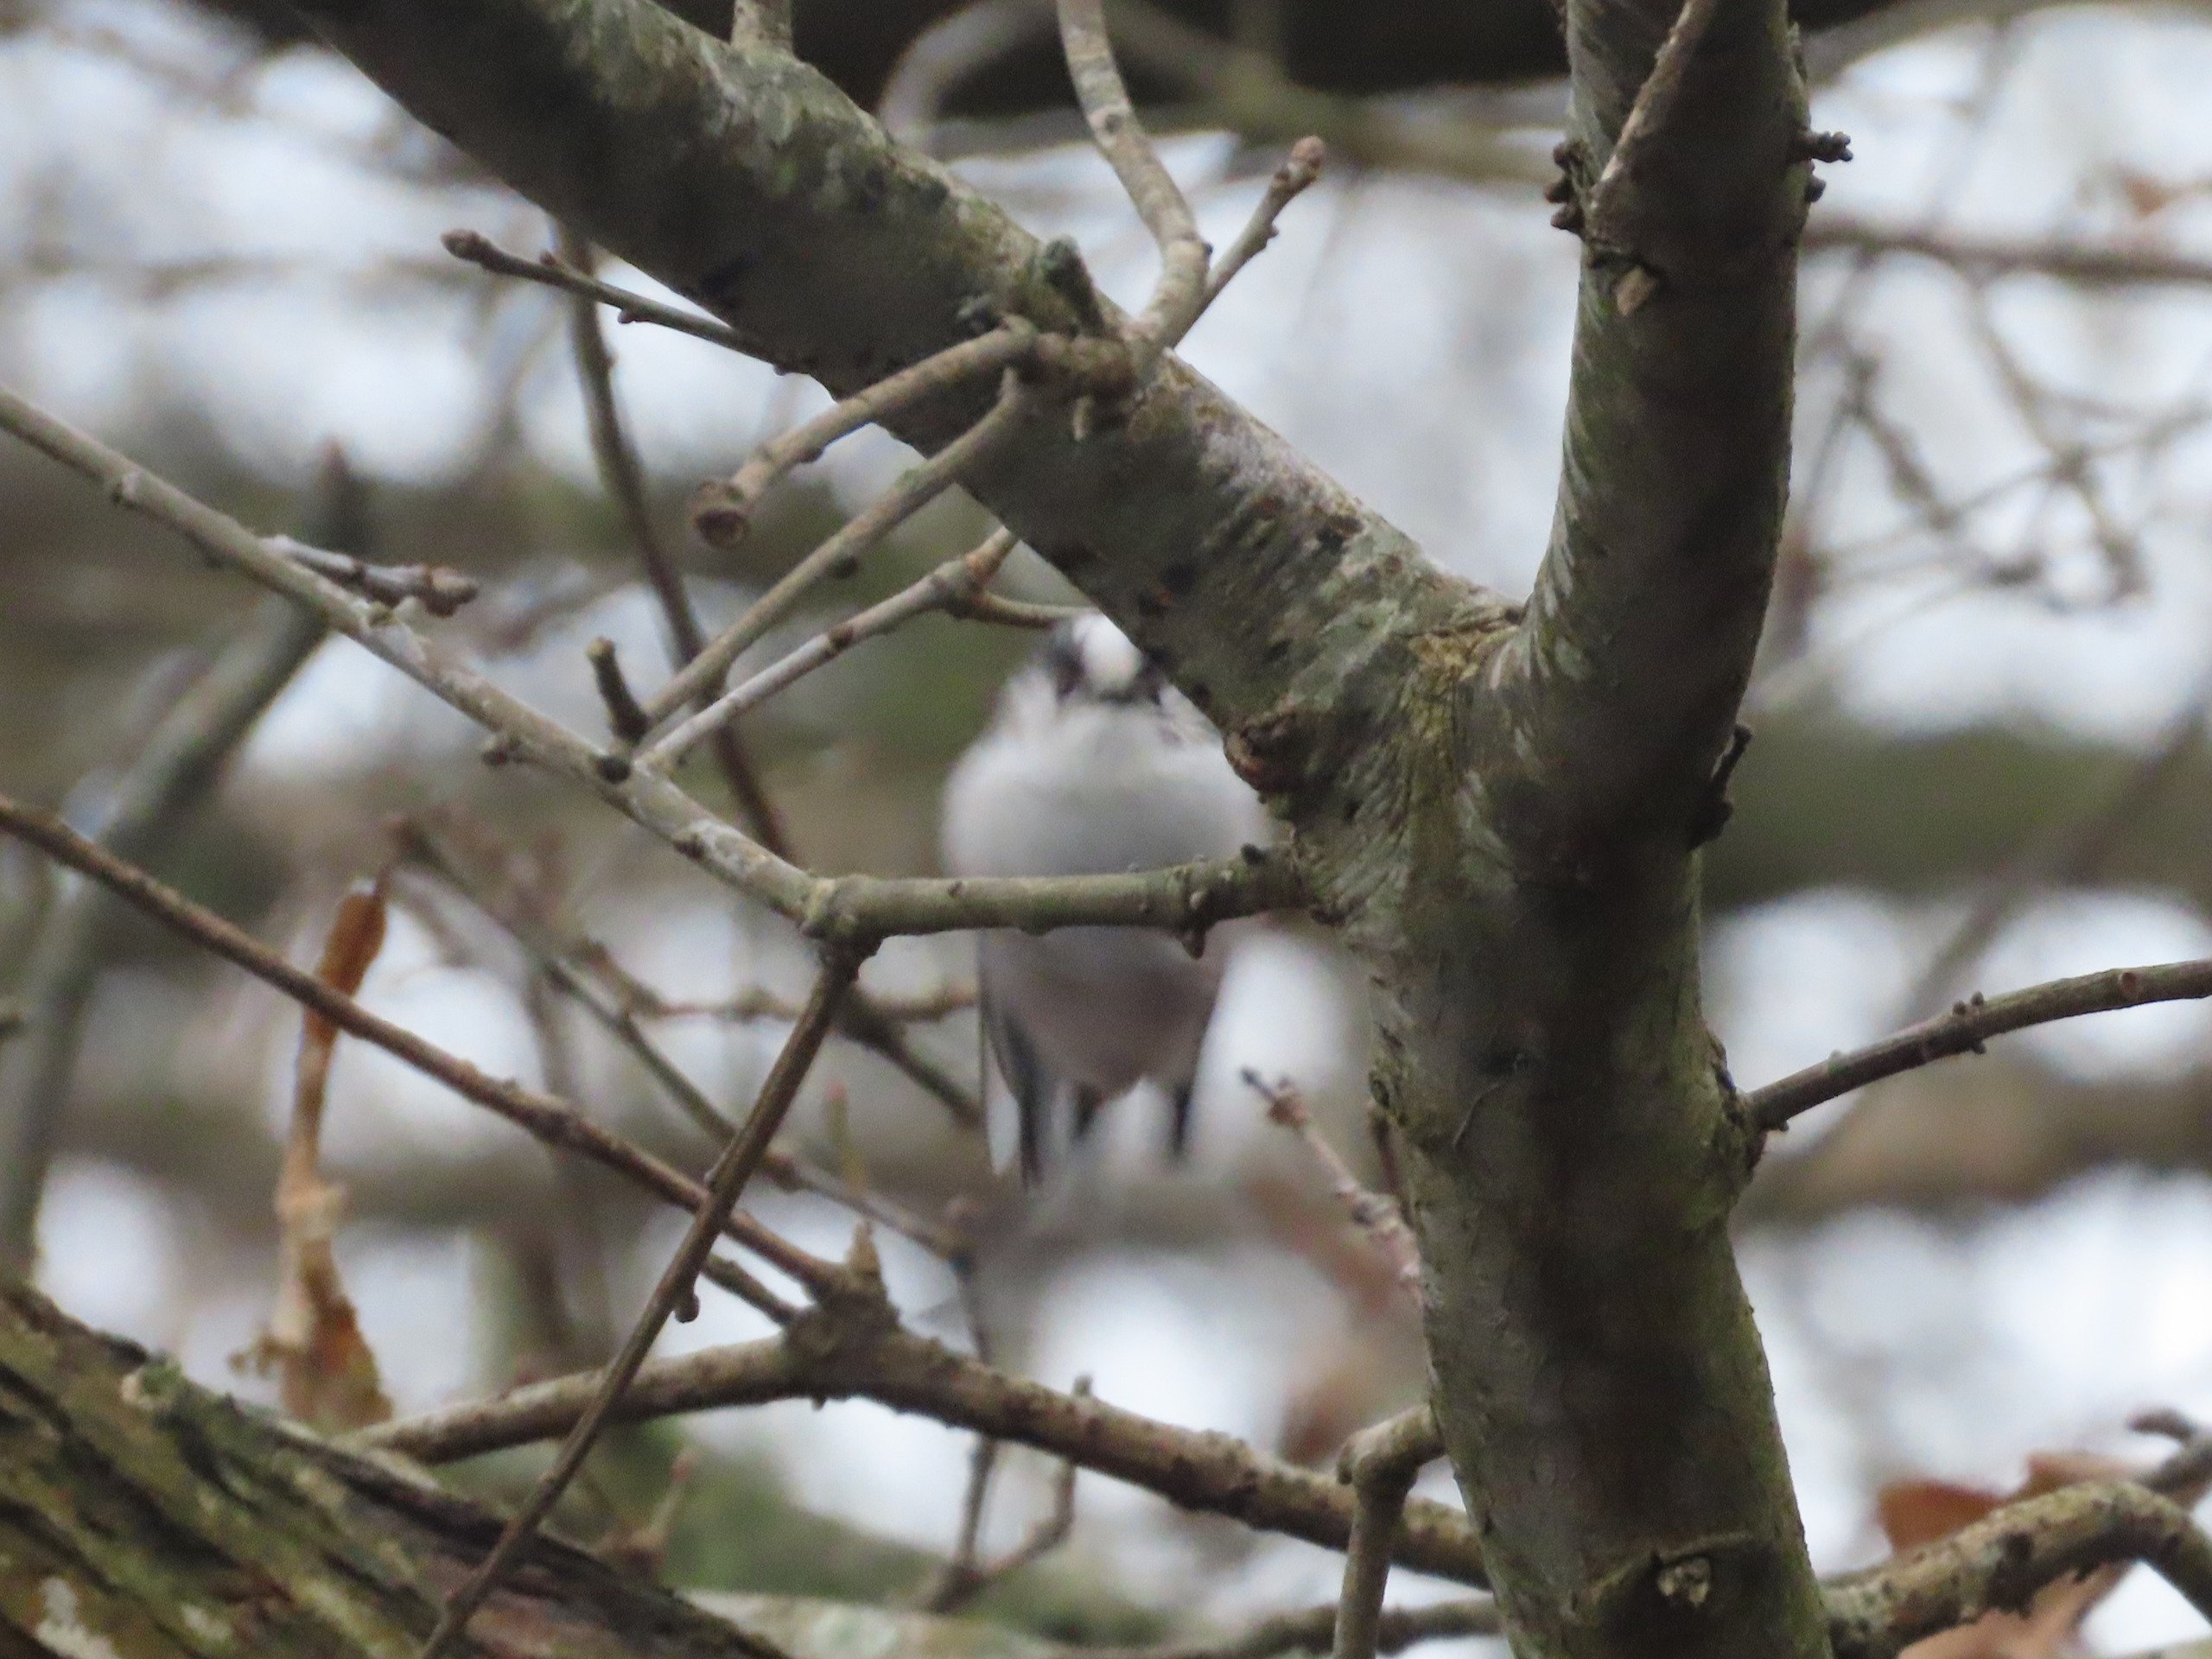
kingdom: Animalia
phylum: Chordata
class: Aves
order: Passeriformes
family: Aegithalidae
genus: Aegithalos
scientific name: Aegithalos caudatus
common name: Halemejse
